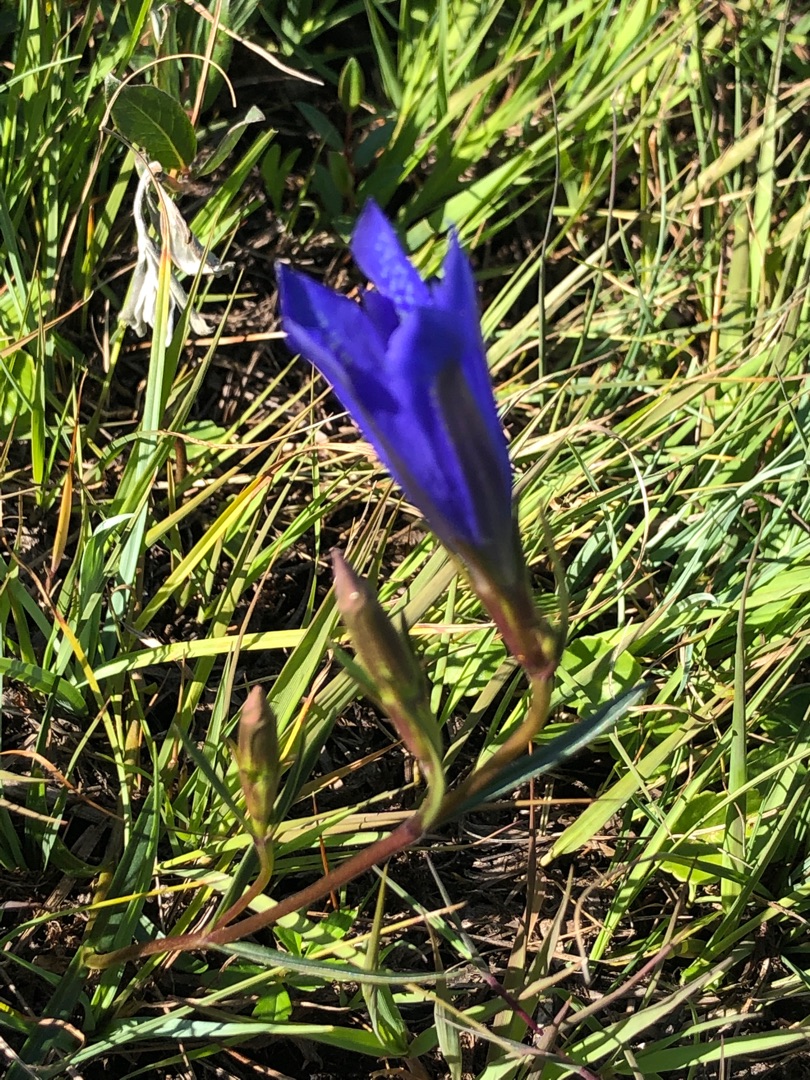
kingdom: Plantae
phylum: Tracheophyta
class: Magnoliopsida
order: Gentianales
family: Gentianaceae
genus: Gentiana
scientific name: Gentiana pneumonanthe
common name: Klokke-ensian
